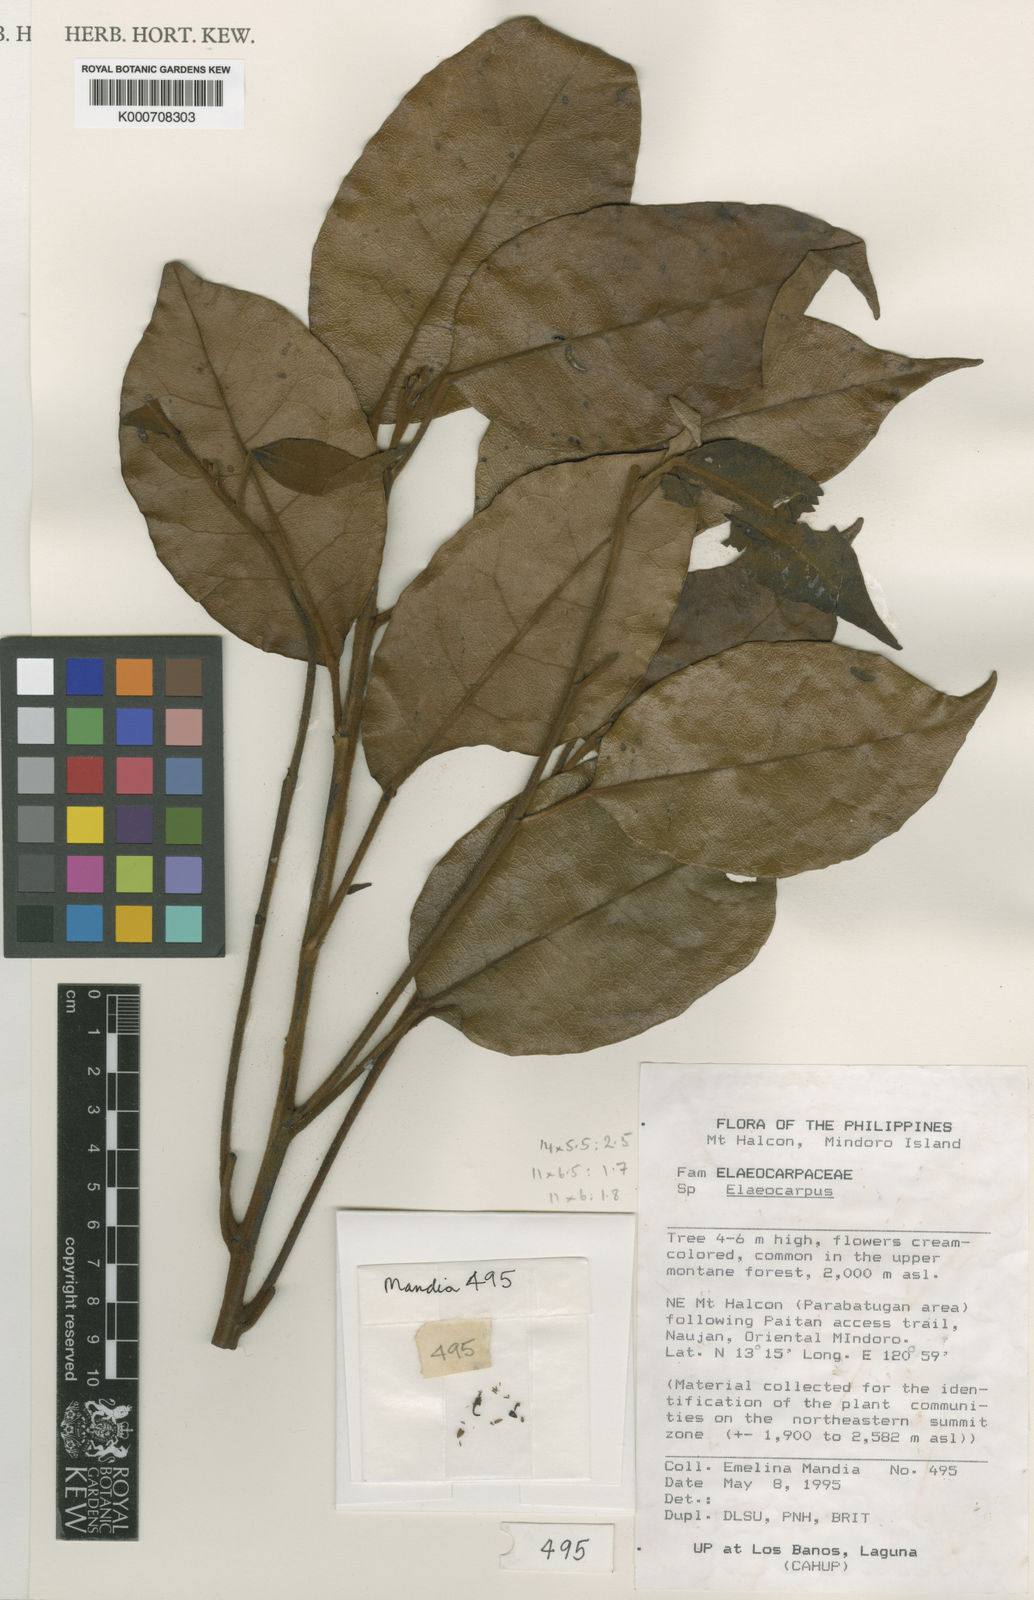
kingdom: Plantae
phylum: Tracheophyta
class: Magnoliopsida
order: Oxalidales
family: Elaeocarpaceae
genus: Elaeocarpus
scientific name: Elaeocarpus alanganorum
